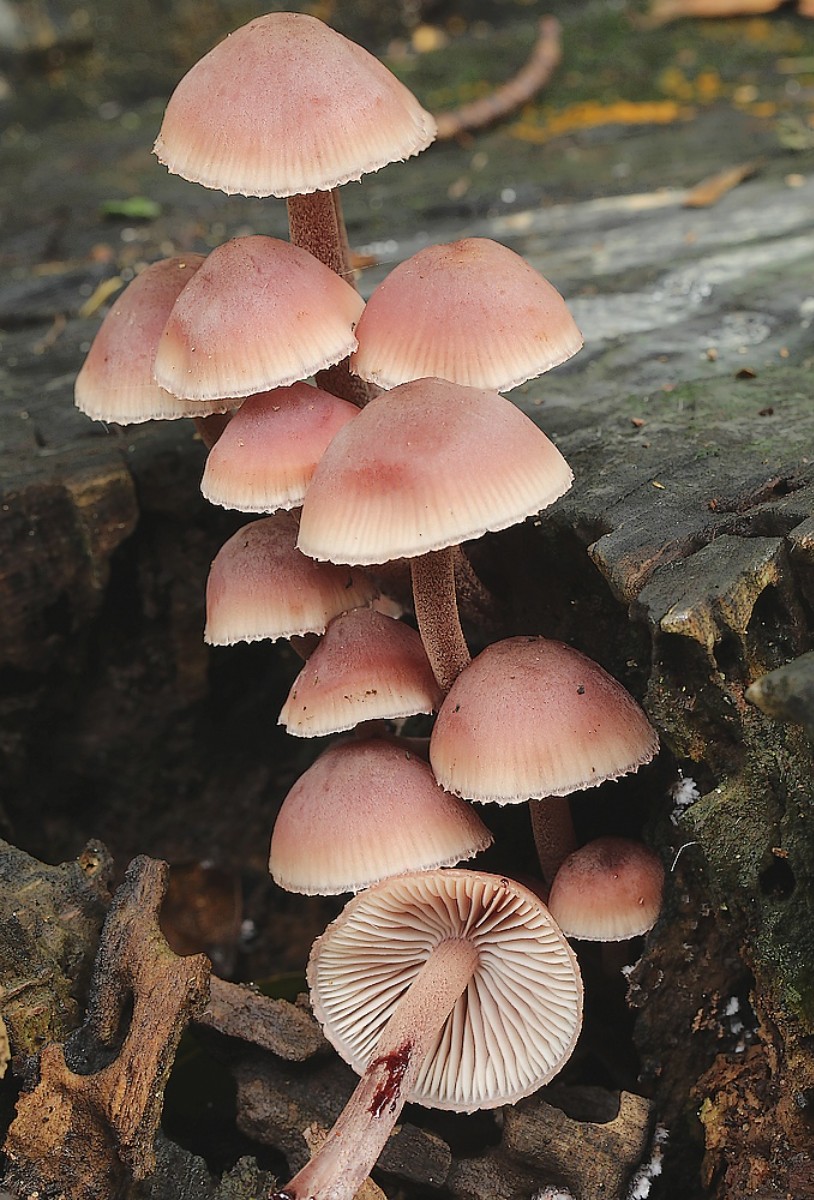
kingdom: Fungi
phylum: Basidiomycota
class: Agaricomycetes
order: Agaricales
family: Mycenaceae
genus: Mycena
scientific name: Mycena haematopus
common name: blødende huesvamp
